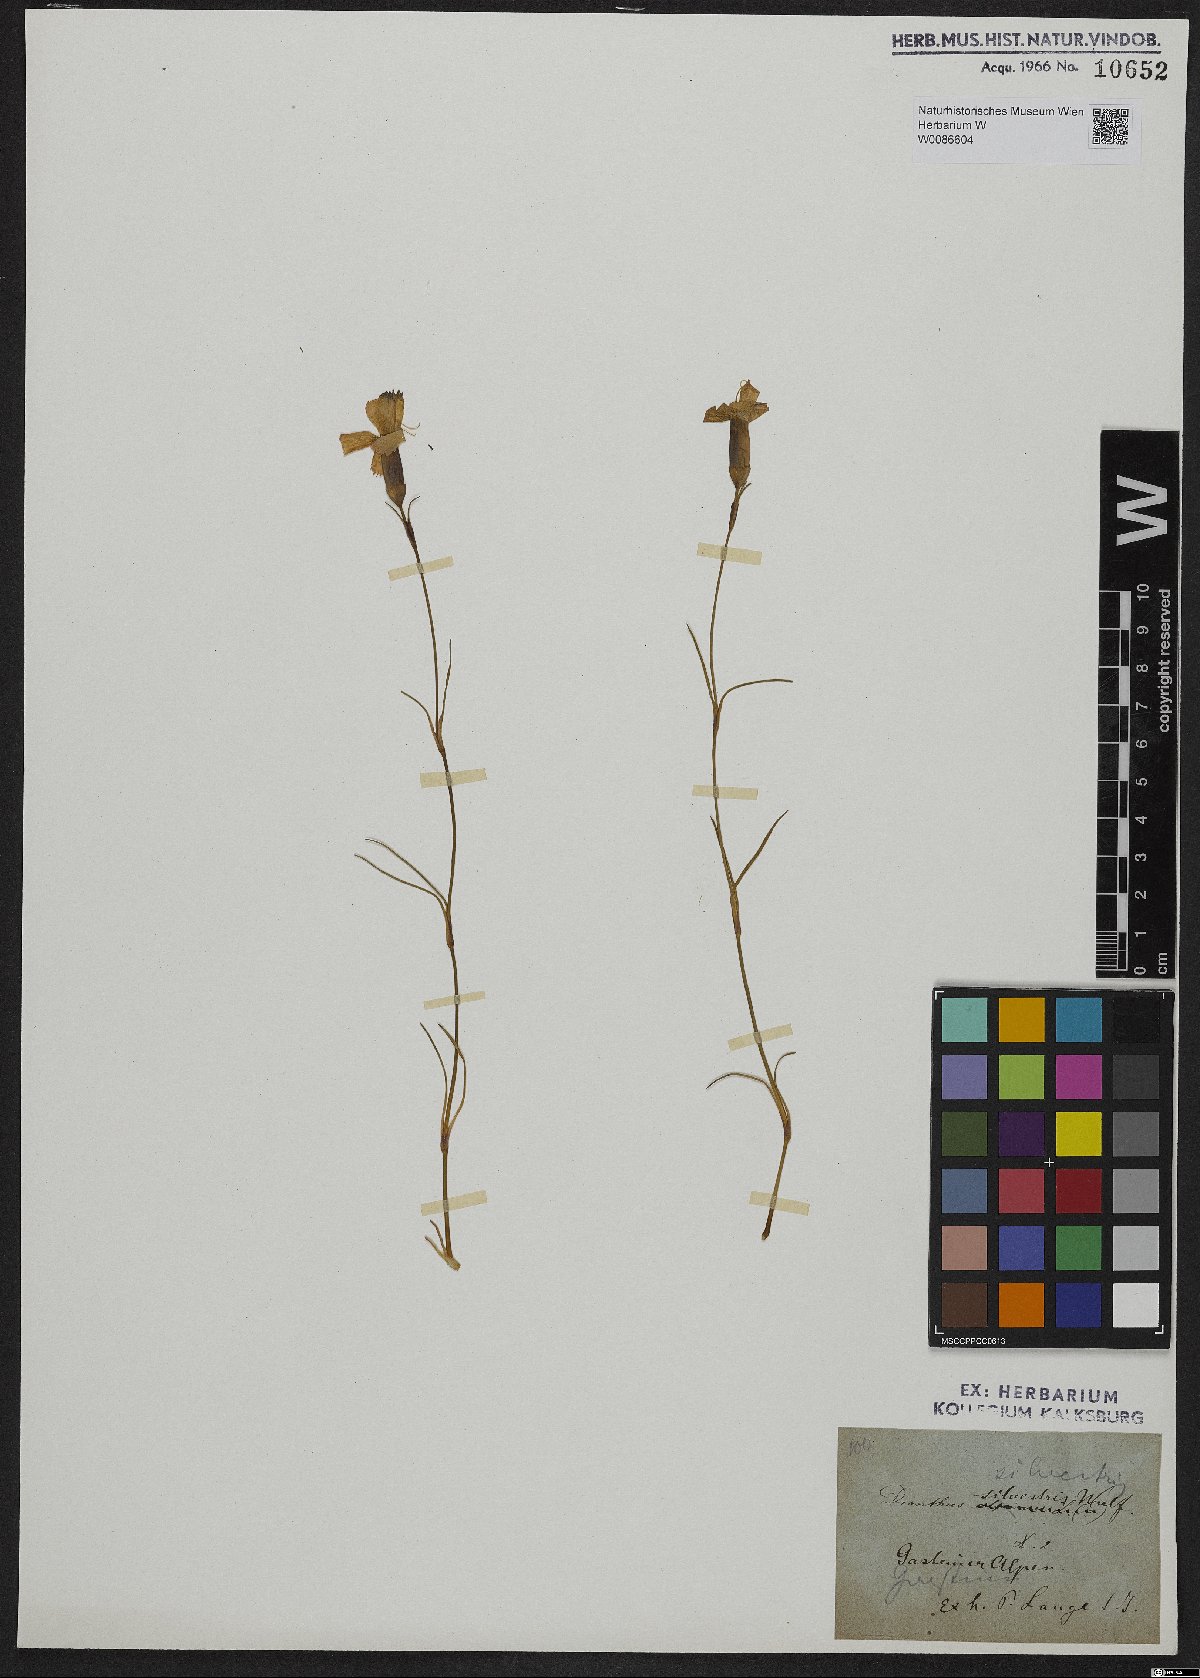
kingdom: Plantae
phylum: Tracheophyta
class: Magnoliopsida
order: Caryophyllales
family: Caryophyllaceae
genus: Dianthus
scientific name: Dianthus sylvestris
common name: Wood pink
